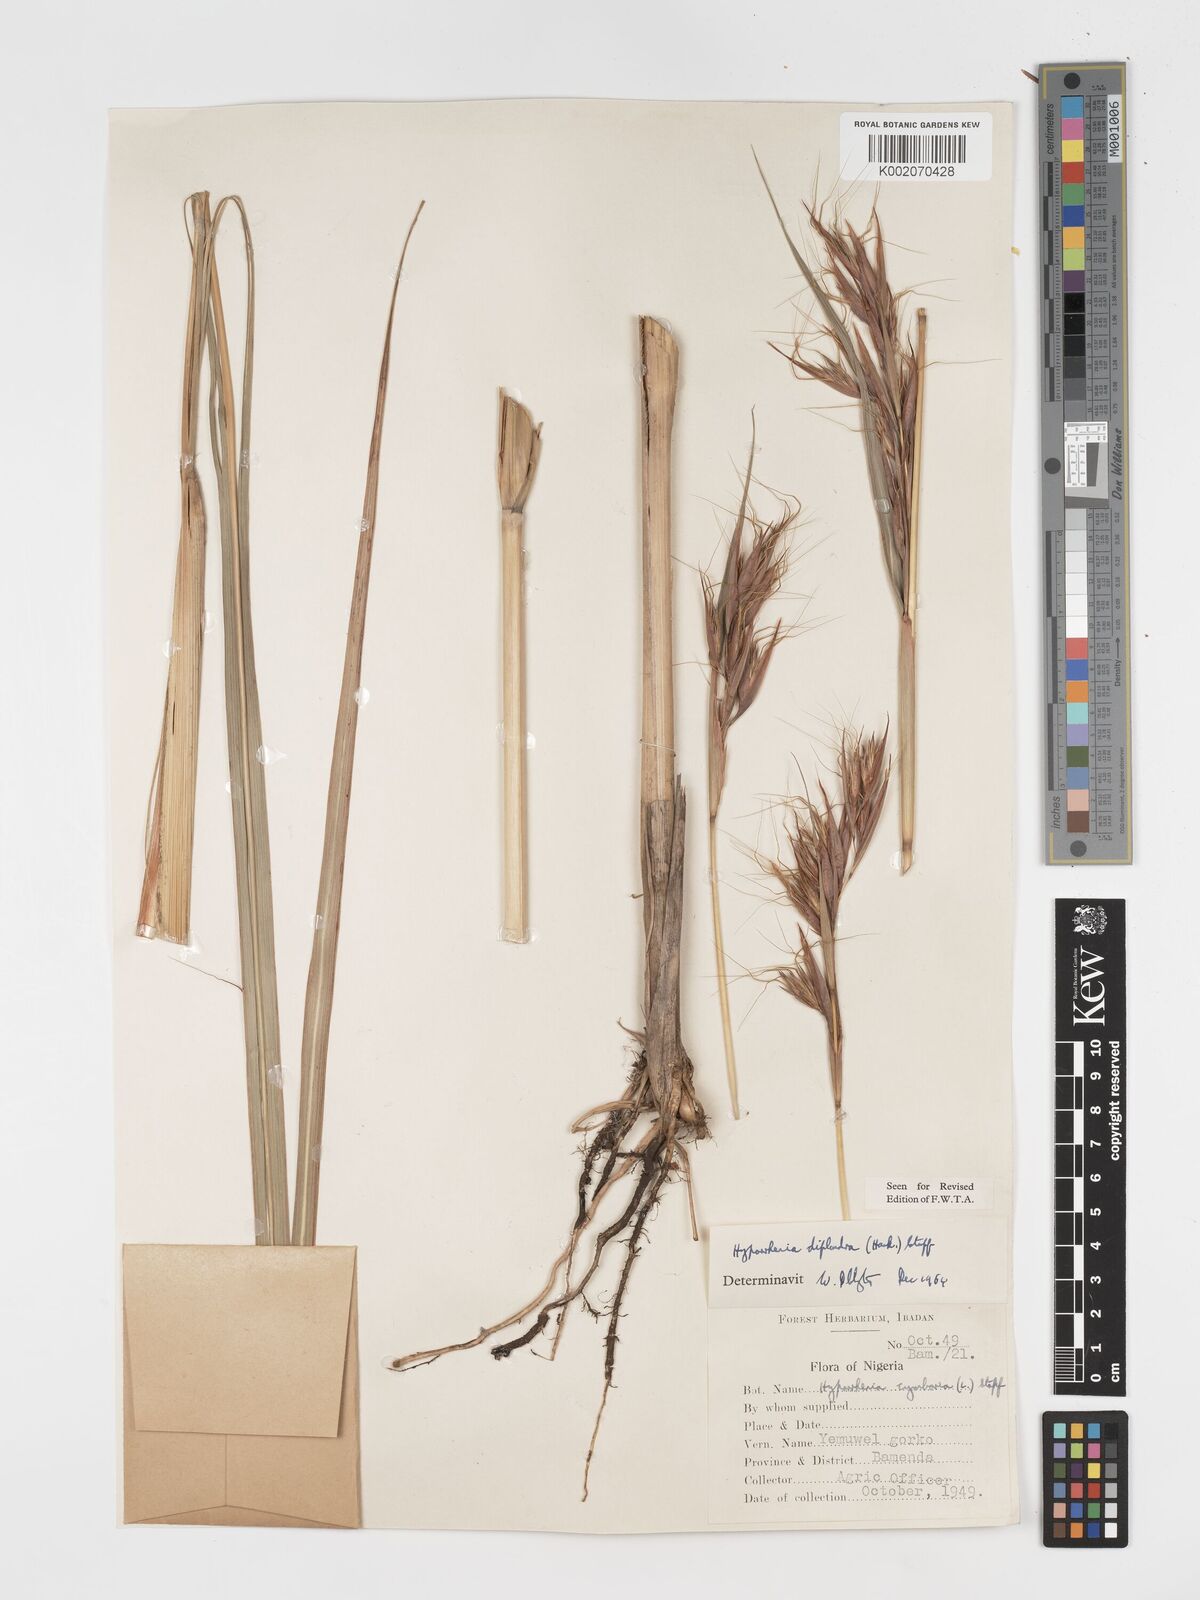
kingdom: Plantae
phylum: Tracheophyta
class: Liliopsida
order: Poales
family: Poaceae
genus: Hyparrhenia
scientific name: Hyparrhenia diplandra
